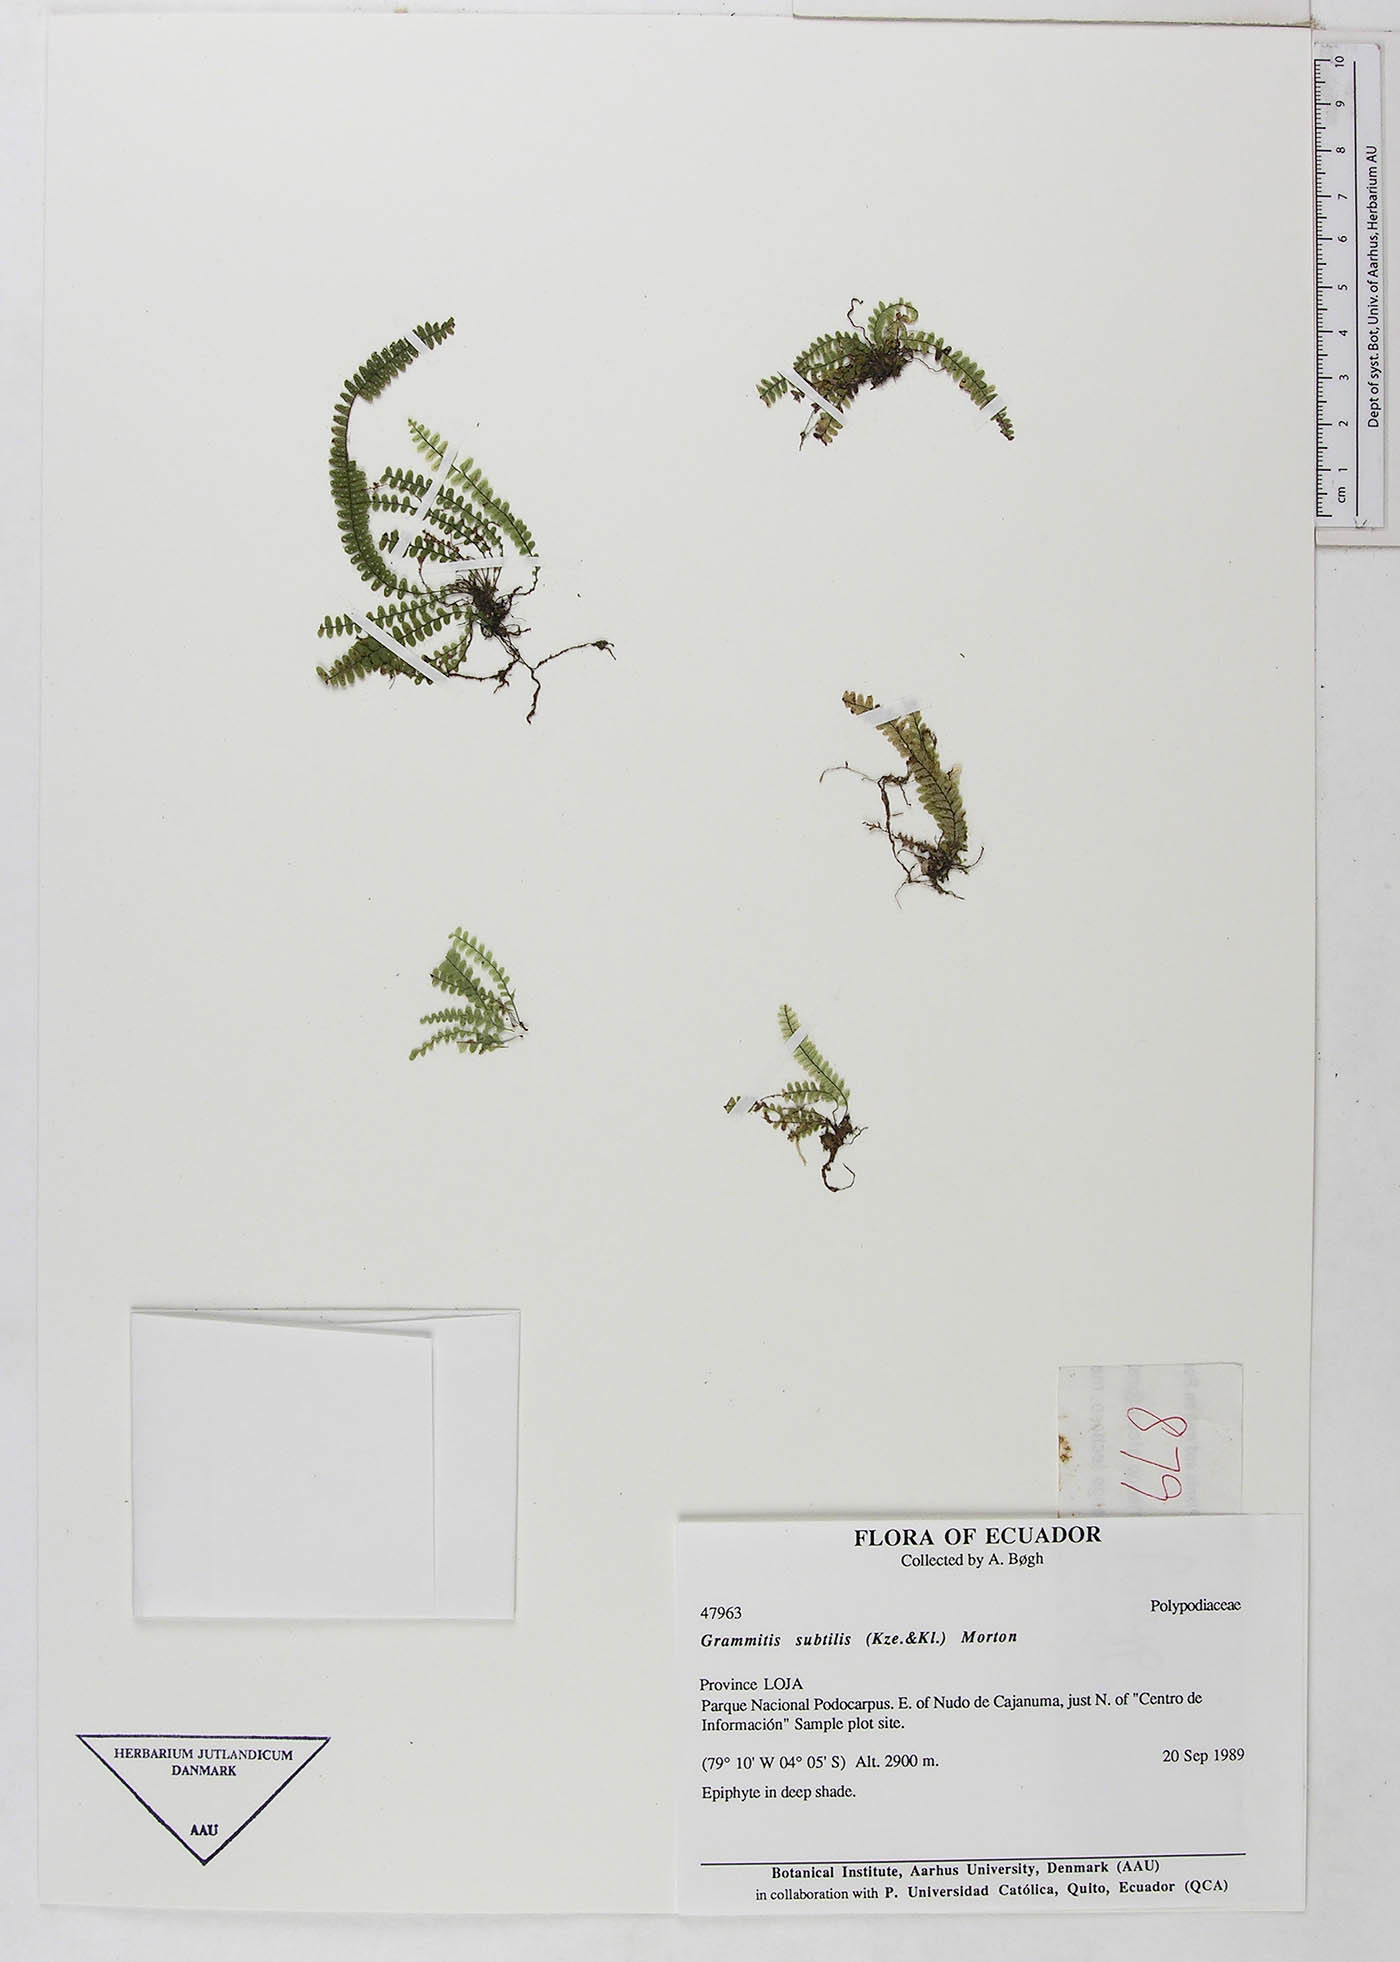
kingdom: Plantae
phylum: Tracheophyta
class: Polypodiopsida
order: Polypodiales
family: Polypodiaceae
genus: Mycopteris
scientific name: Mycopteris subtilis
